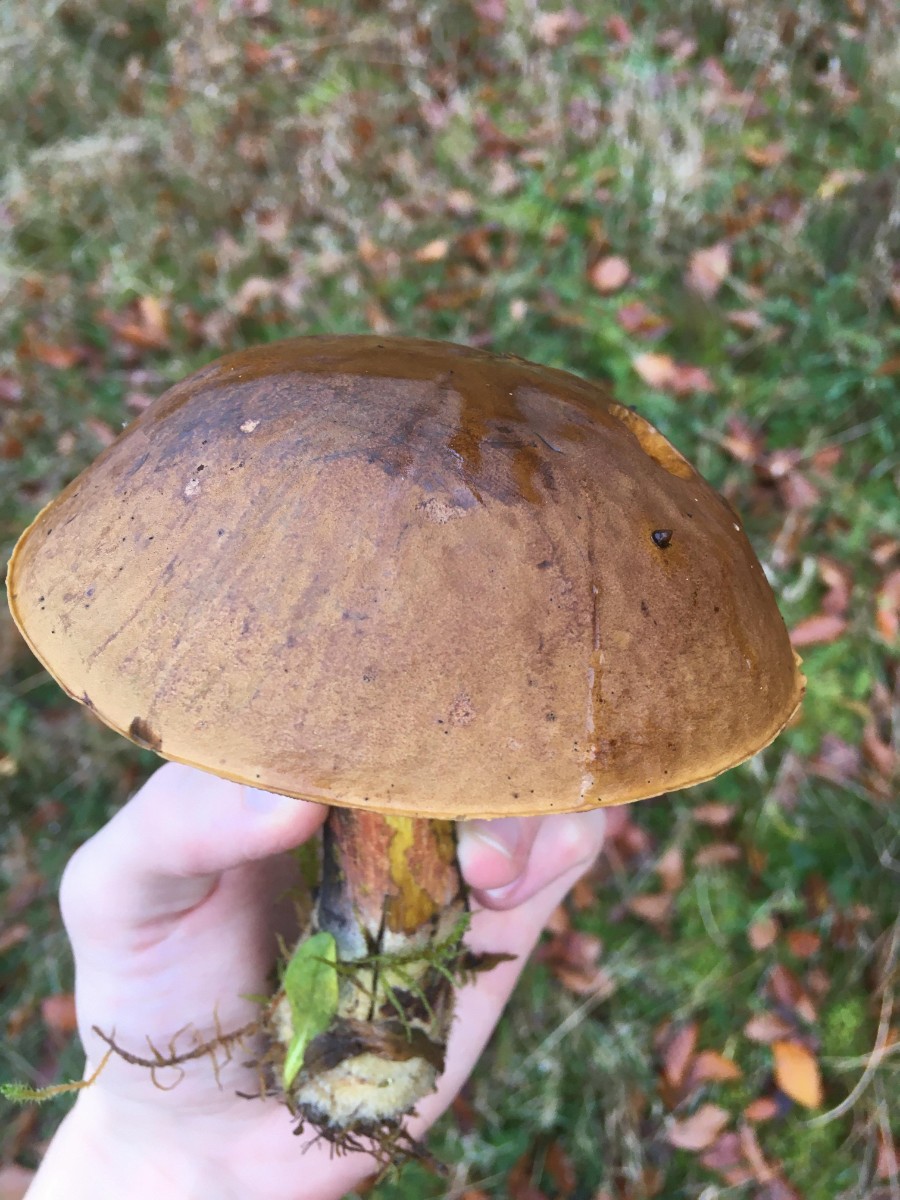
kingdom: Fungi
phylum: Basidiomycota
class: Agaricomycetes
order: Boletales
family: Boletaceae
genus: Neoboletus
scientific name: Neoboletus erythropus
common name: punktstokket indigorørhat
